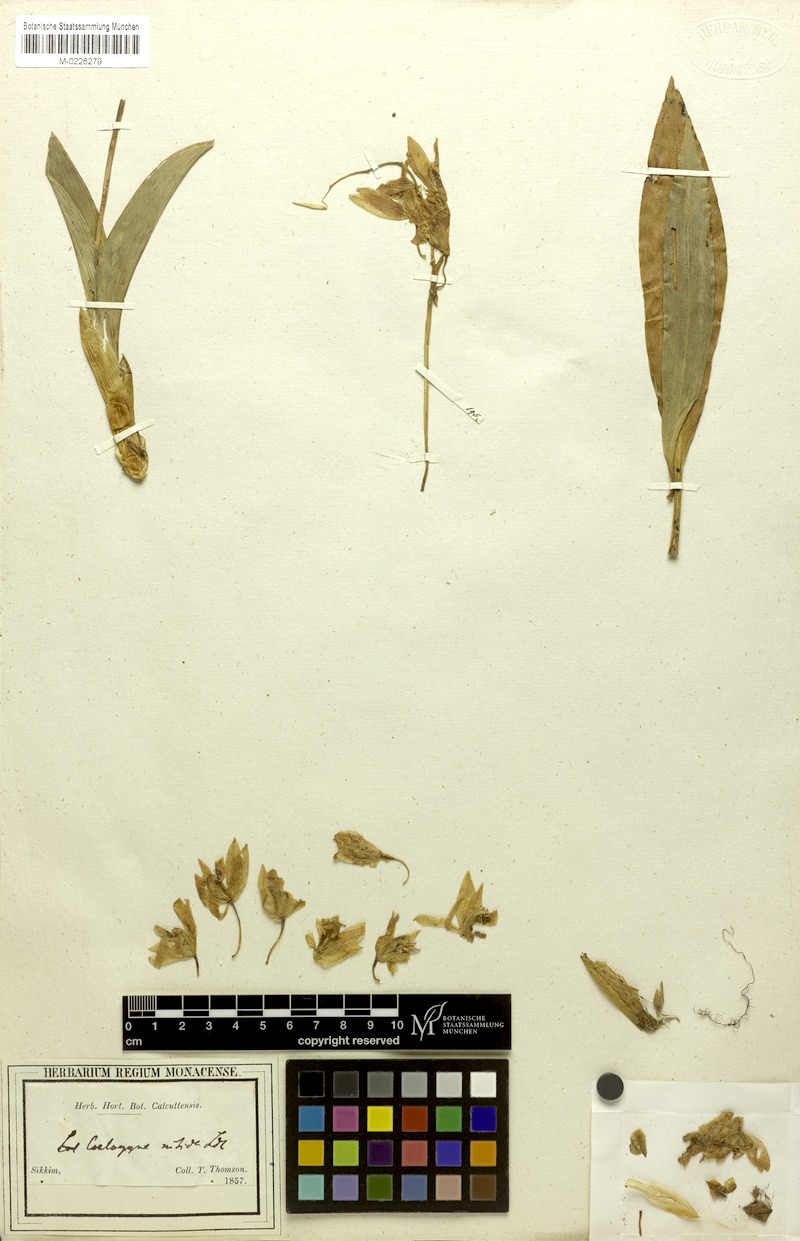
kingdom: Plantae
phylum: Tracheophyta
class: Liliopsida
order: Asparagales
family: Orchidaceae
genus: Coelogyne
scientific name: Coelogyne nitida
